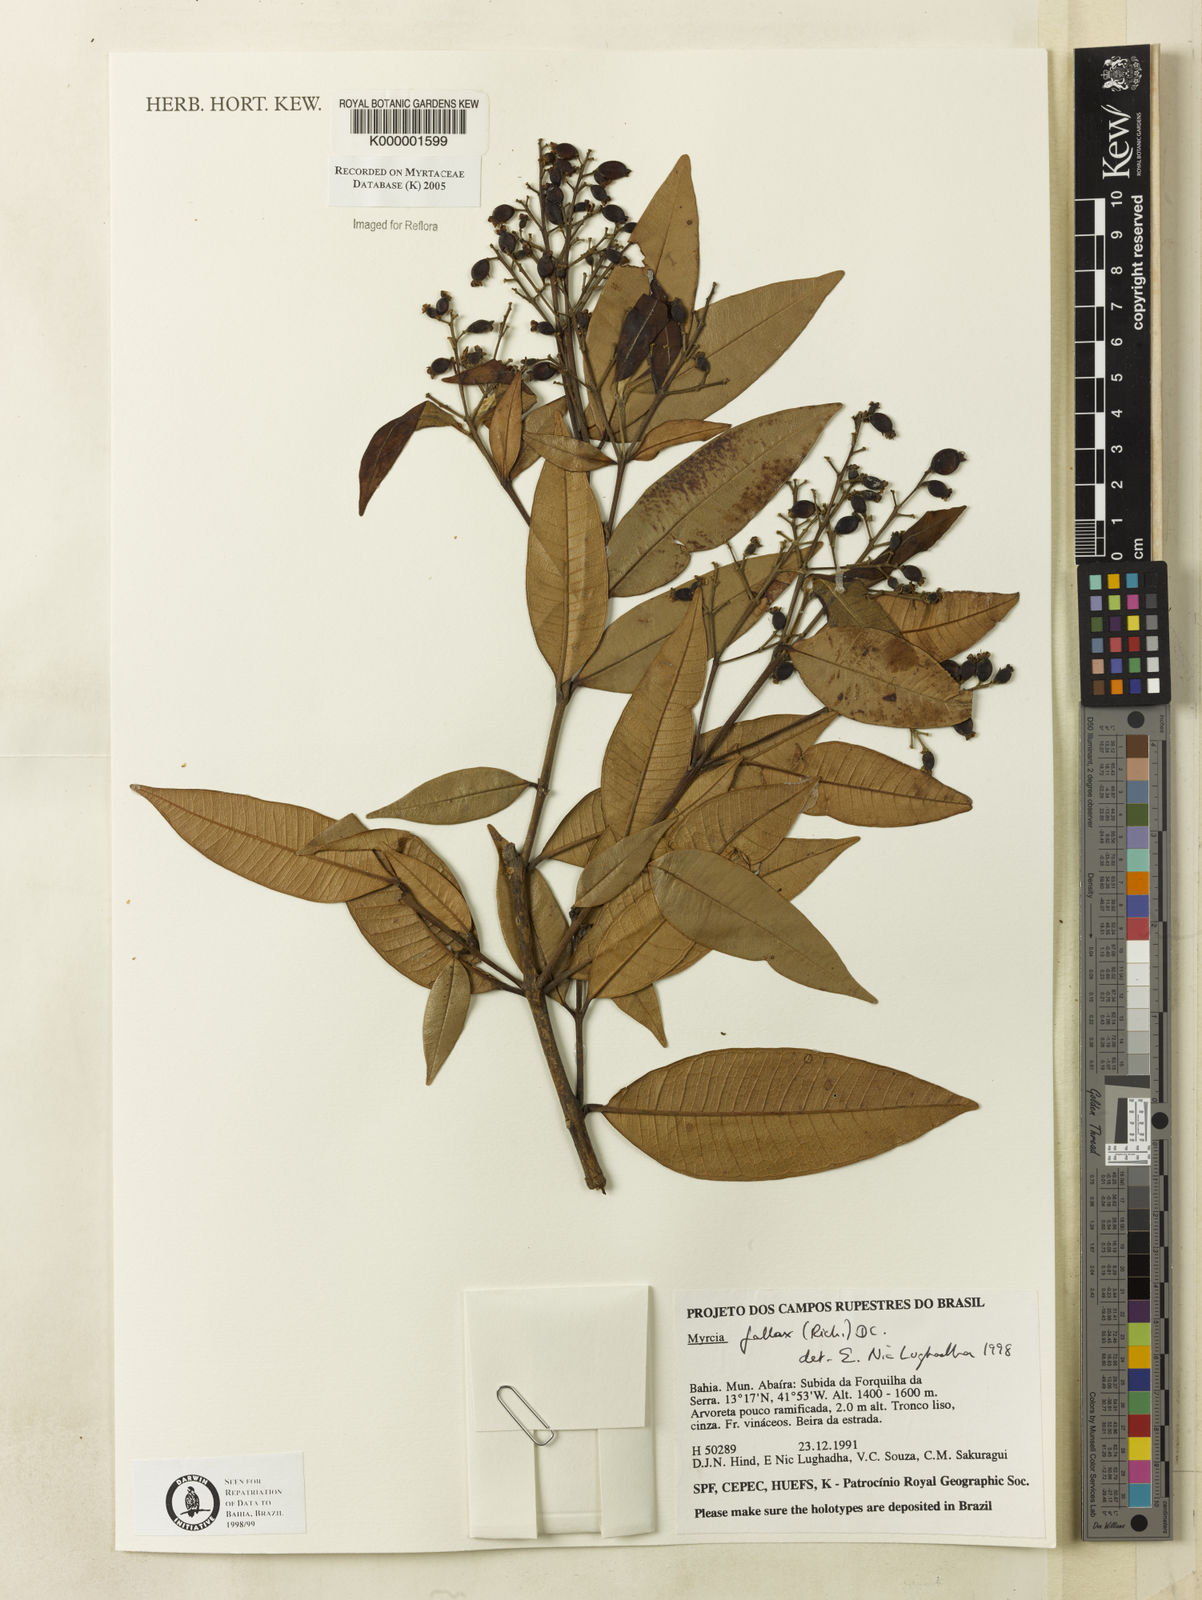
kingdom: Plantae
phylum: Tracheophyta
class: Magnoliopsida
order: Myrtales
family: Myrtaceae
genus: Myrcia
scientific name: Myrcia splendens
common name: Surinam cherry
